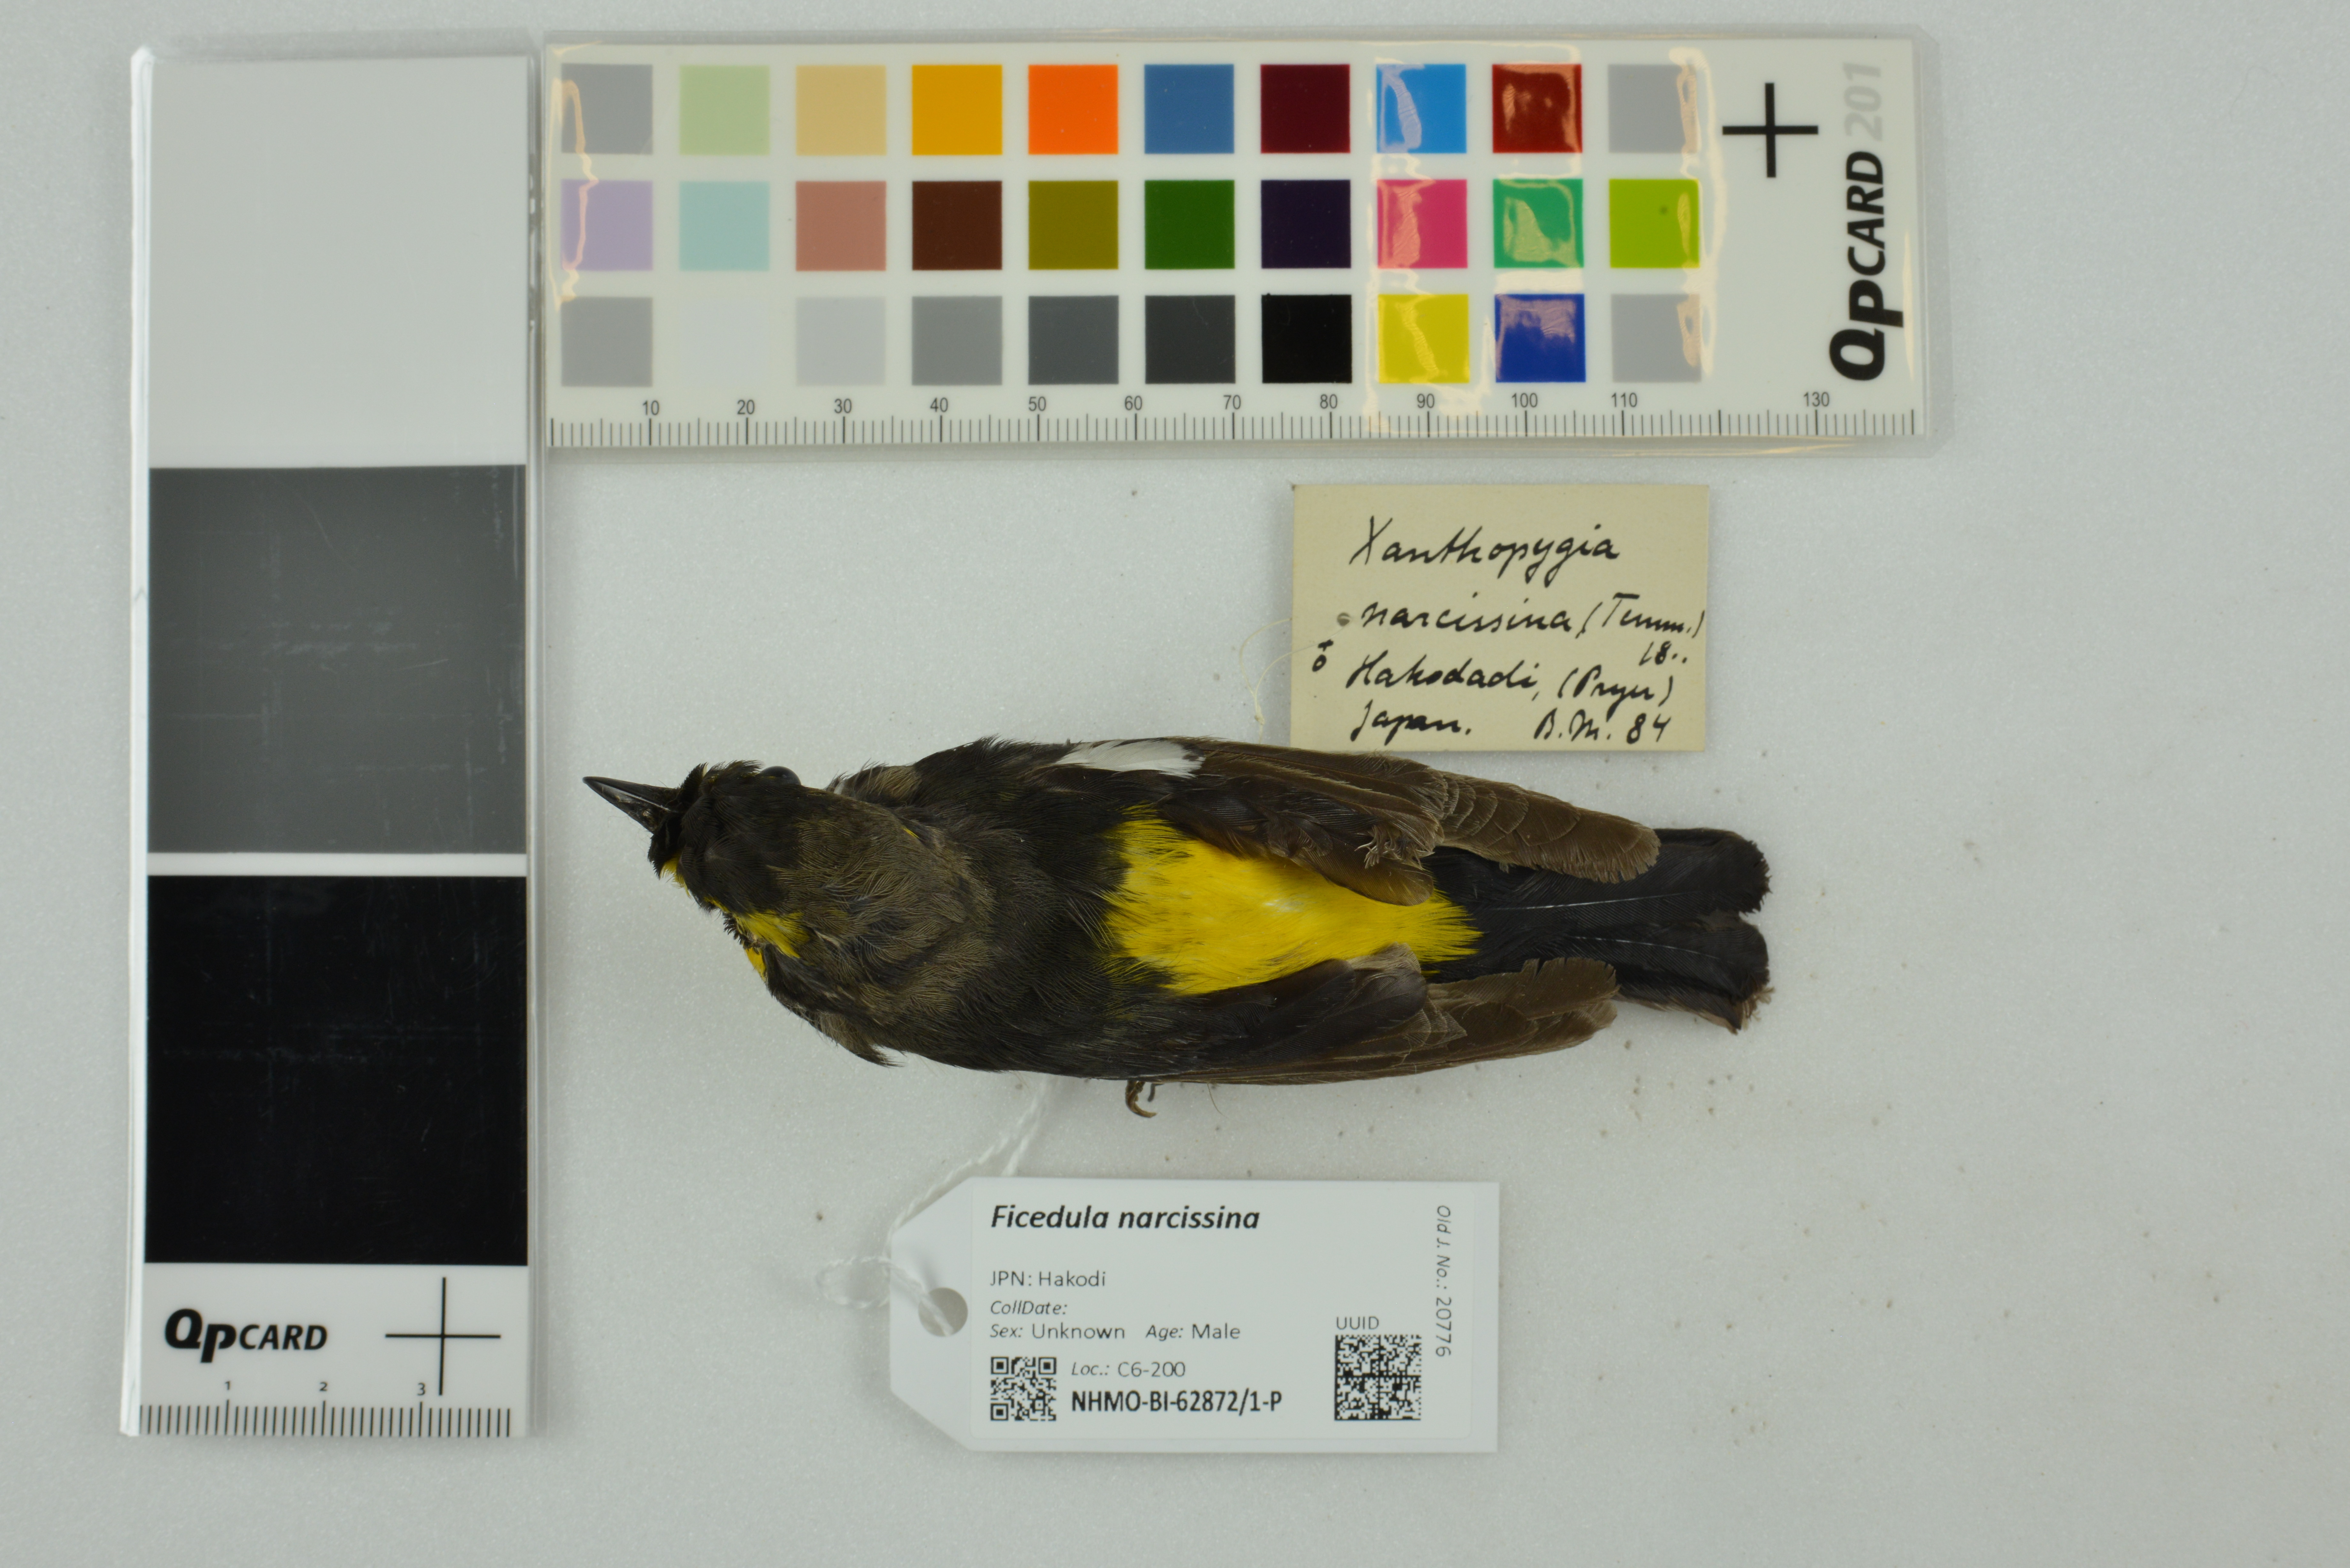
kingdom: Animalia
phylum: Chordata
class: Aves
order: Passeriformes
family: Muscicapidae
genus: Ficedula
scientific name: Ficedula narcissina
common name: Narcissus flycatcher
